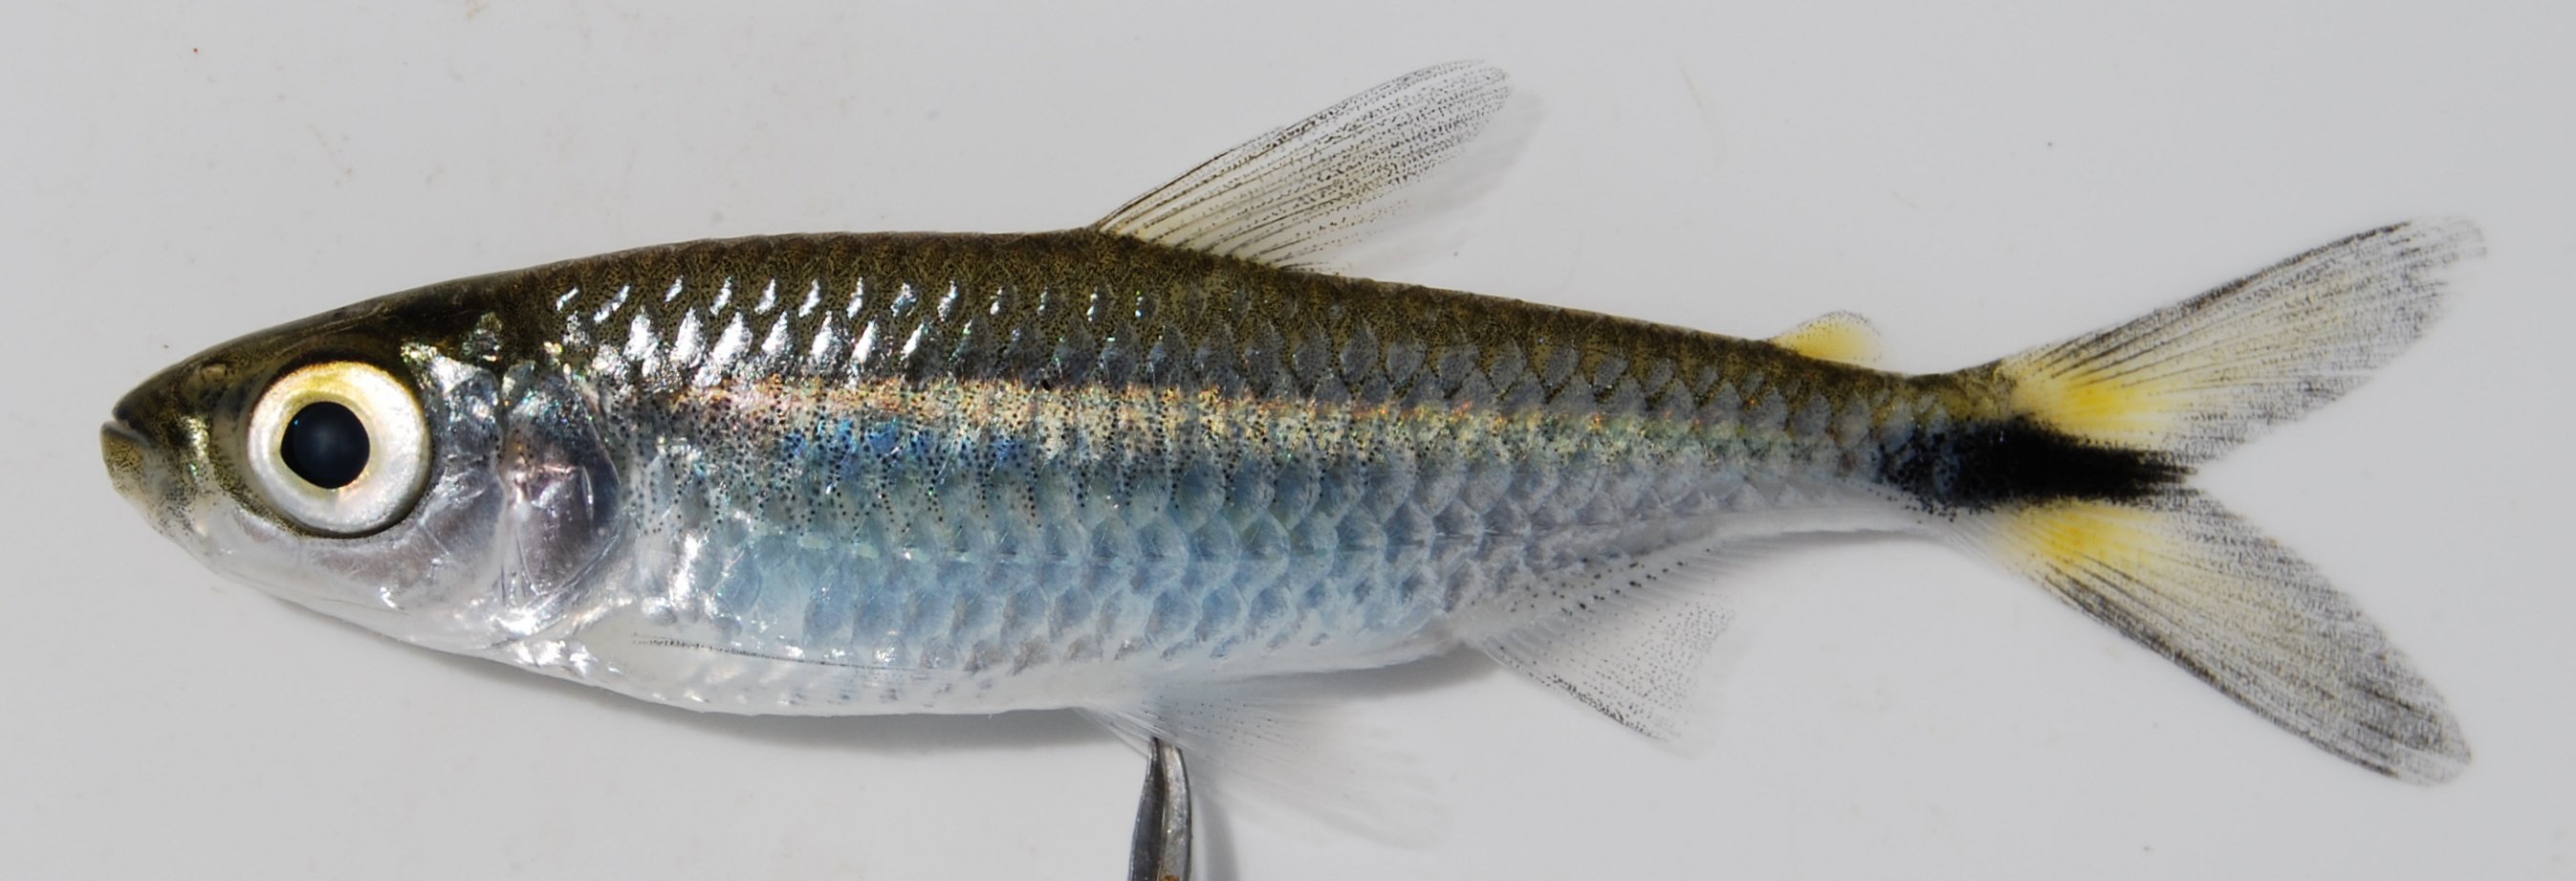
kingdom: Animalia
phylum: Chordata
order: Characiformes
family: Alestidae
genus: Brycinus
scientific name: Brycinus lateralis
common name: Striped robber
